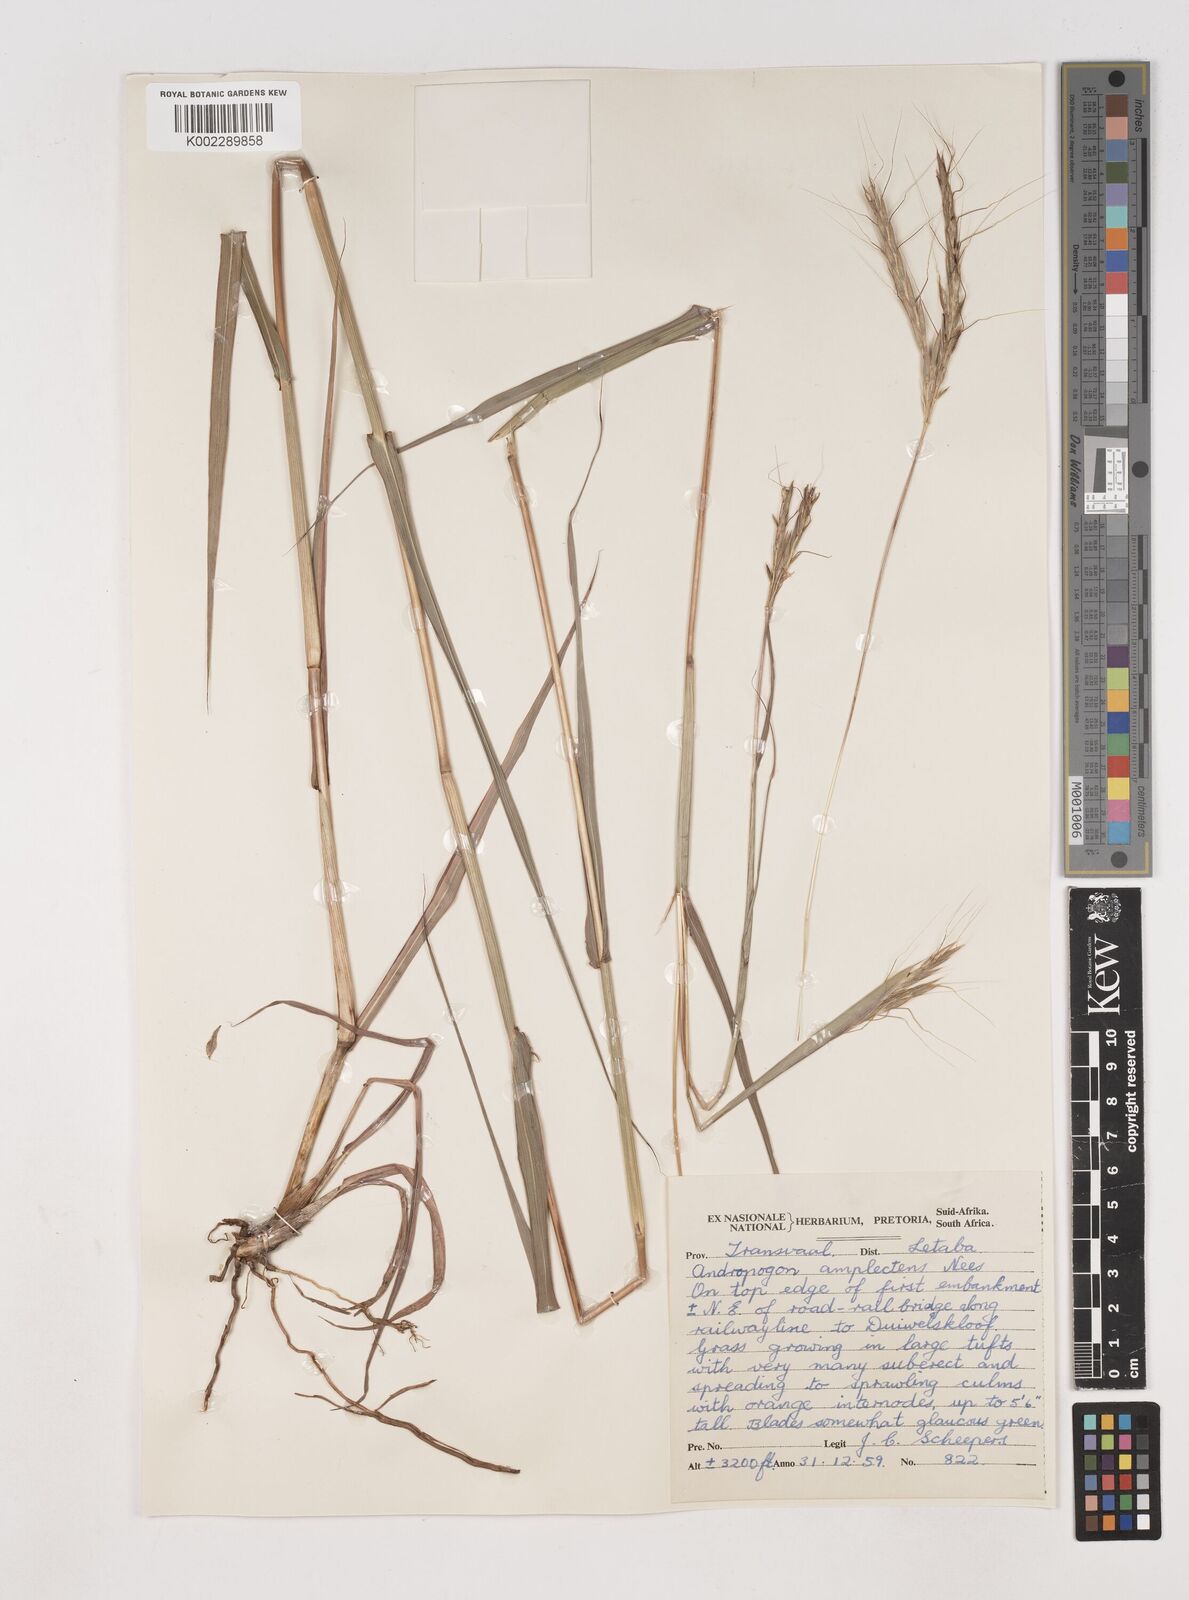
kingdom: Plantae
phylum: Tracheophyta
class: Liliopsida
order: Poales
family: Poaceae
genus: Diheteropogon
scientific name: Diheteropogon amplectens
